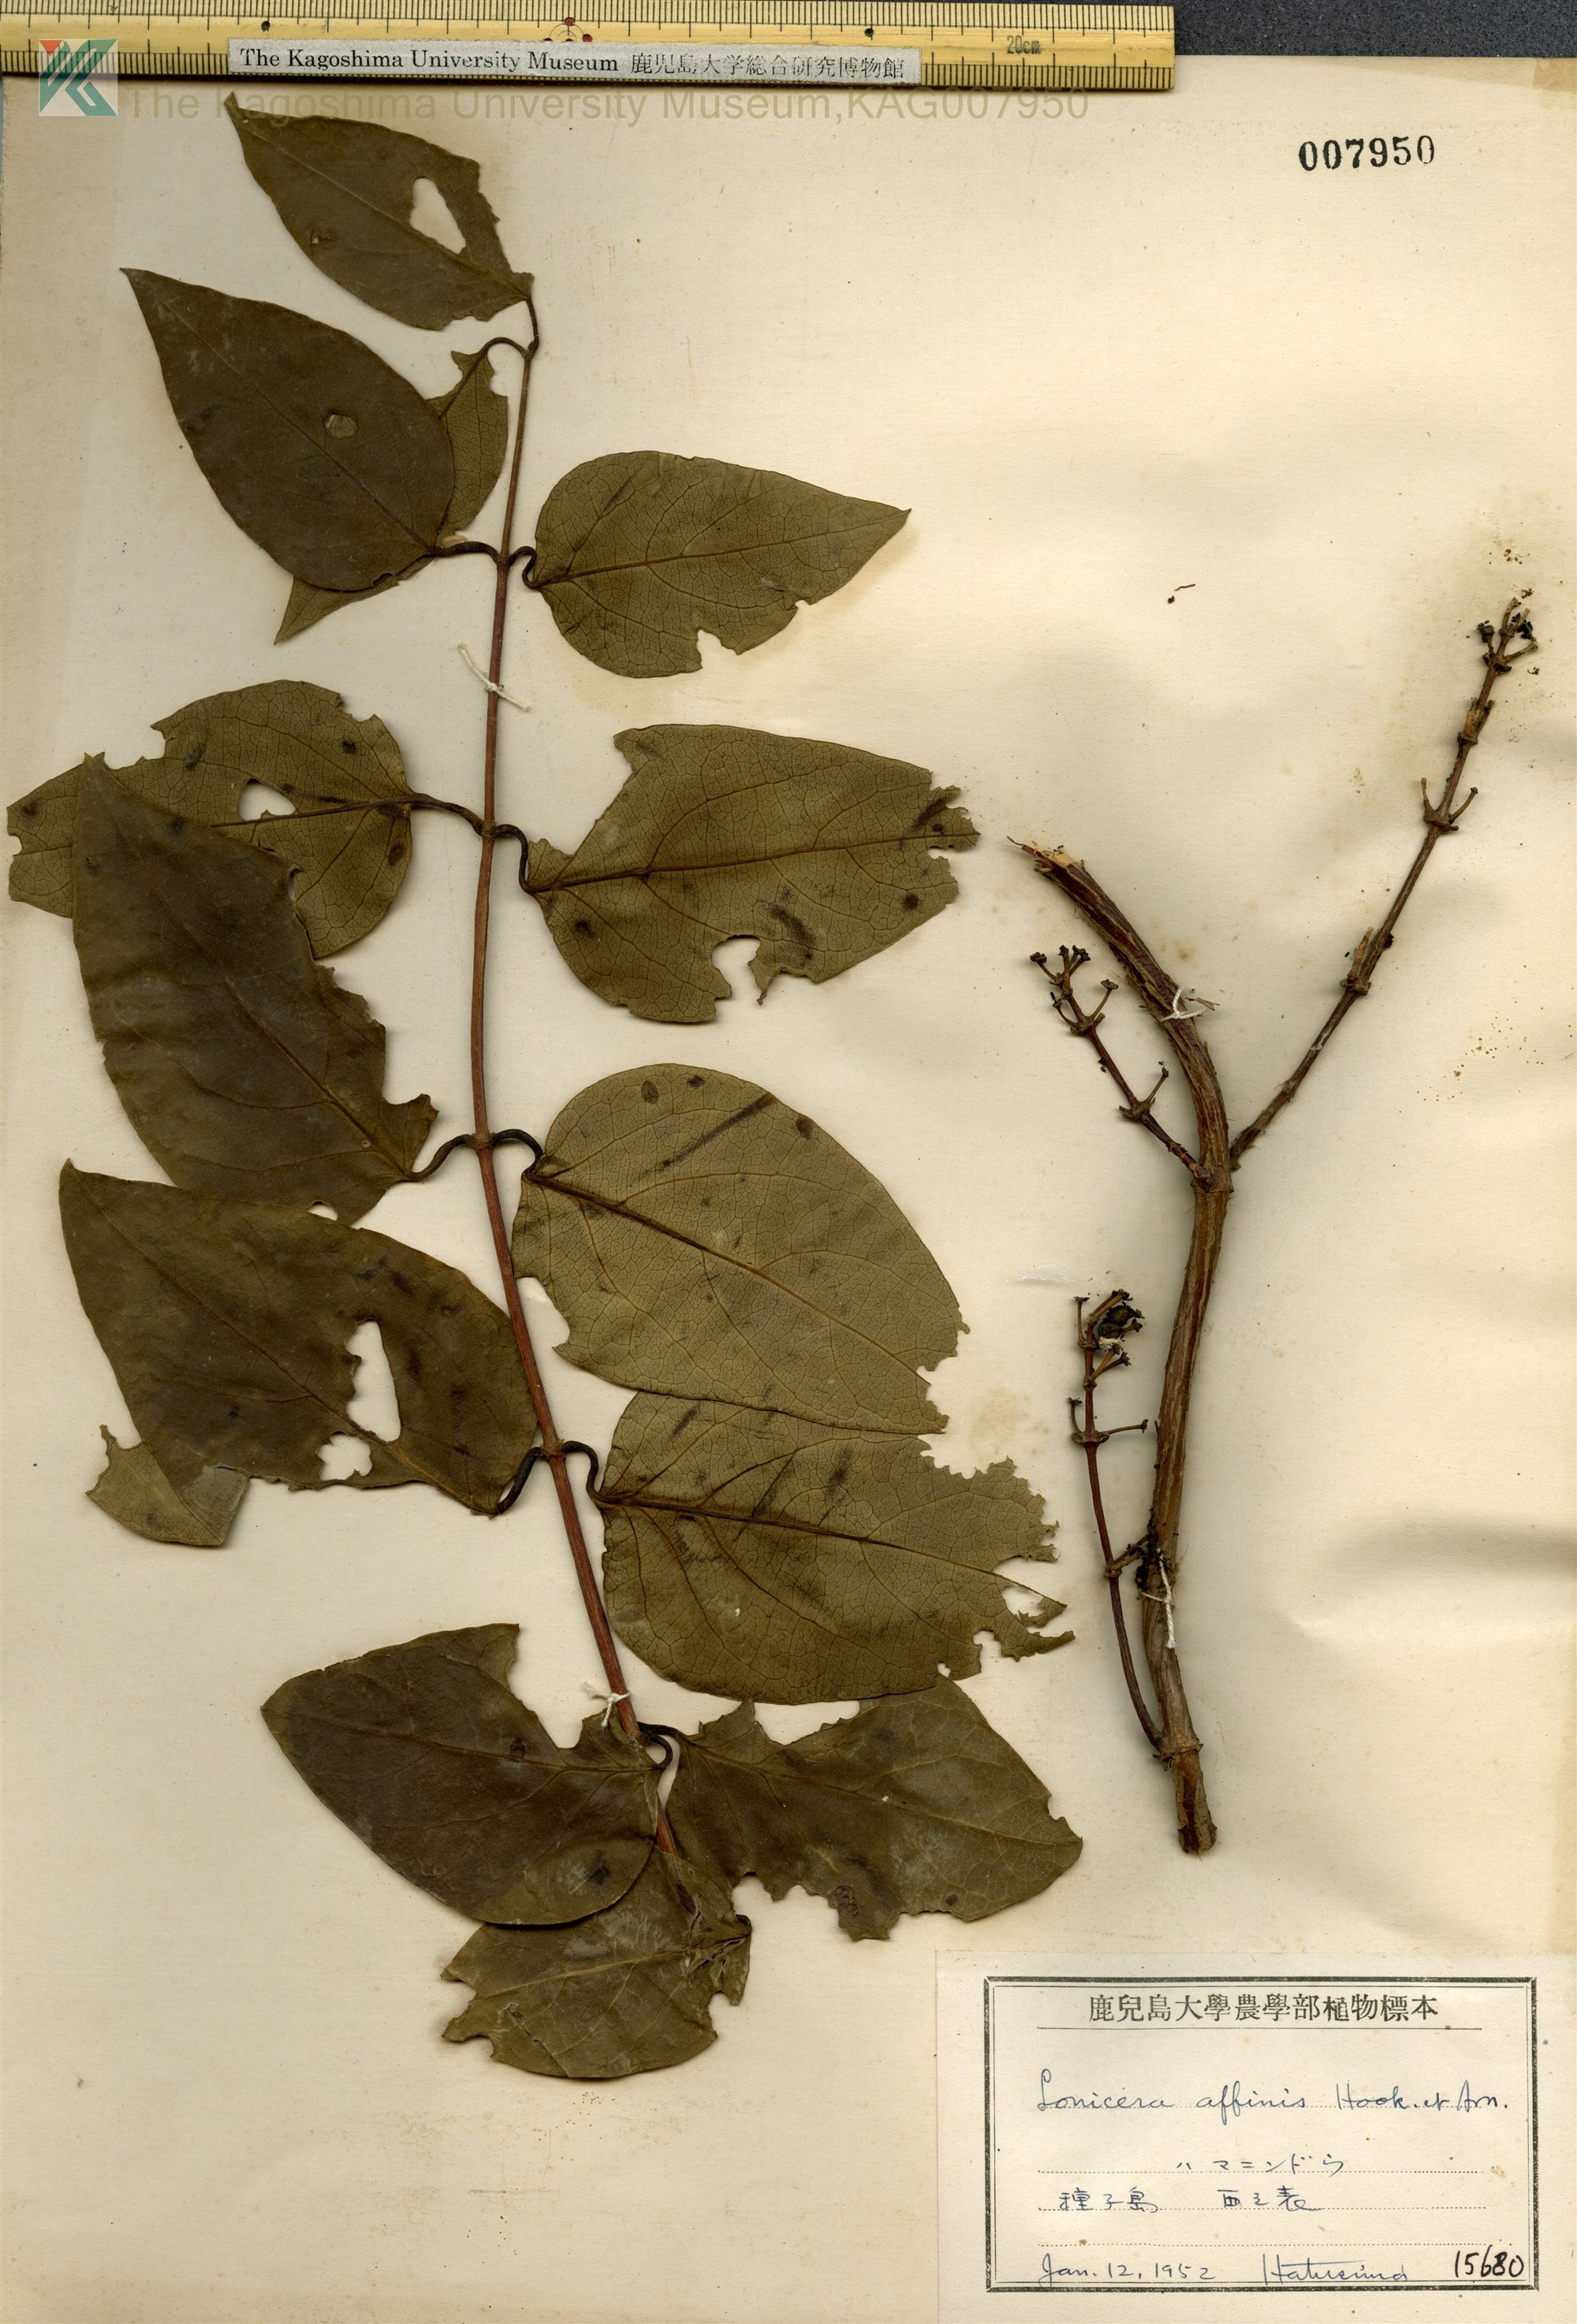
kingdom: Plantae
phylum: Tracheophyta
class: Magnoliopsida
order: Dipsacales
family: Caprifoliaceae
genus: Lonicera
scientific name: Lonicera affinis
